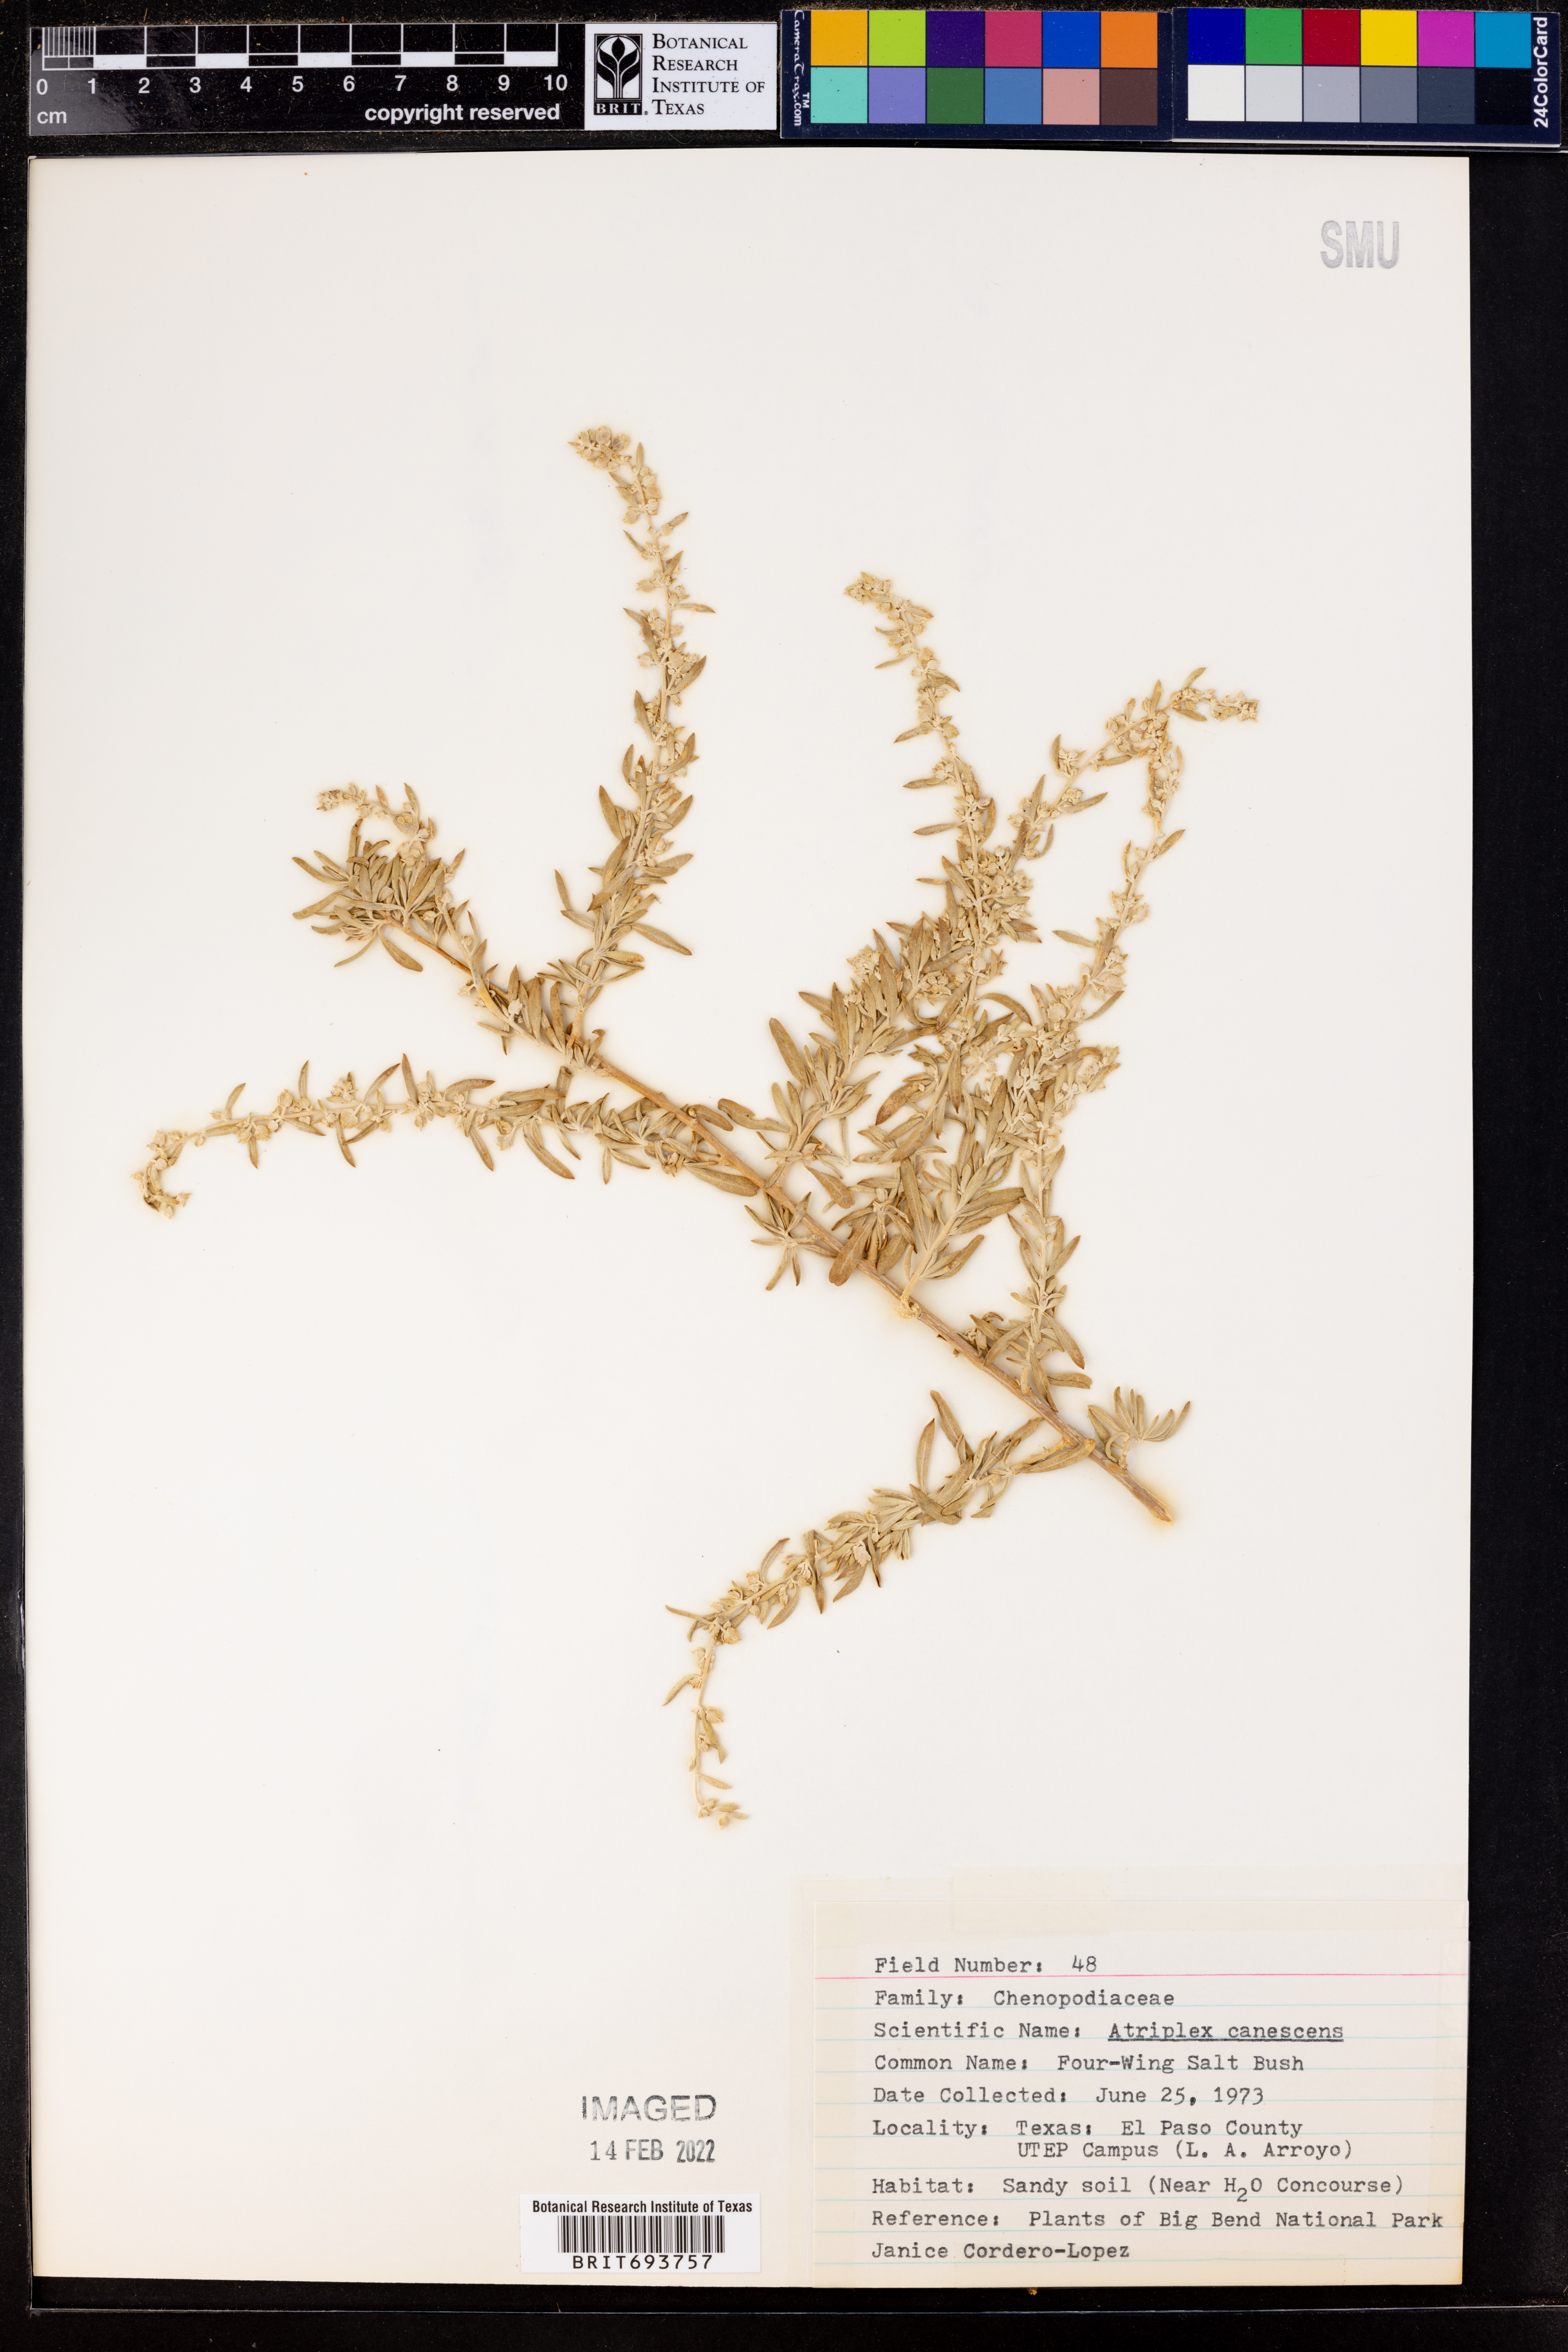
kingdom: Plantae
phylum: Tracheophyta
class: Magnoliopsida
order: Caryophyllales
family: Amaranthaceae
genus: Atriplex
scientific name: Atriplex canescens
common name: Four-wing saltbush
